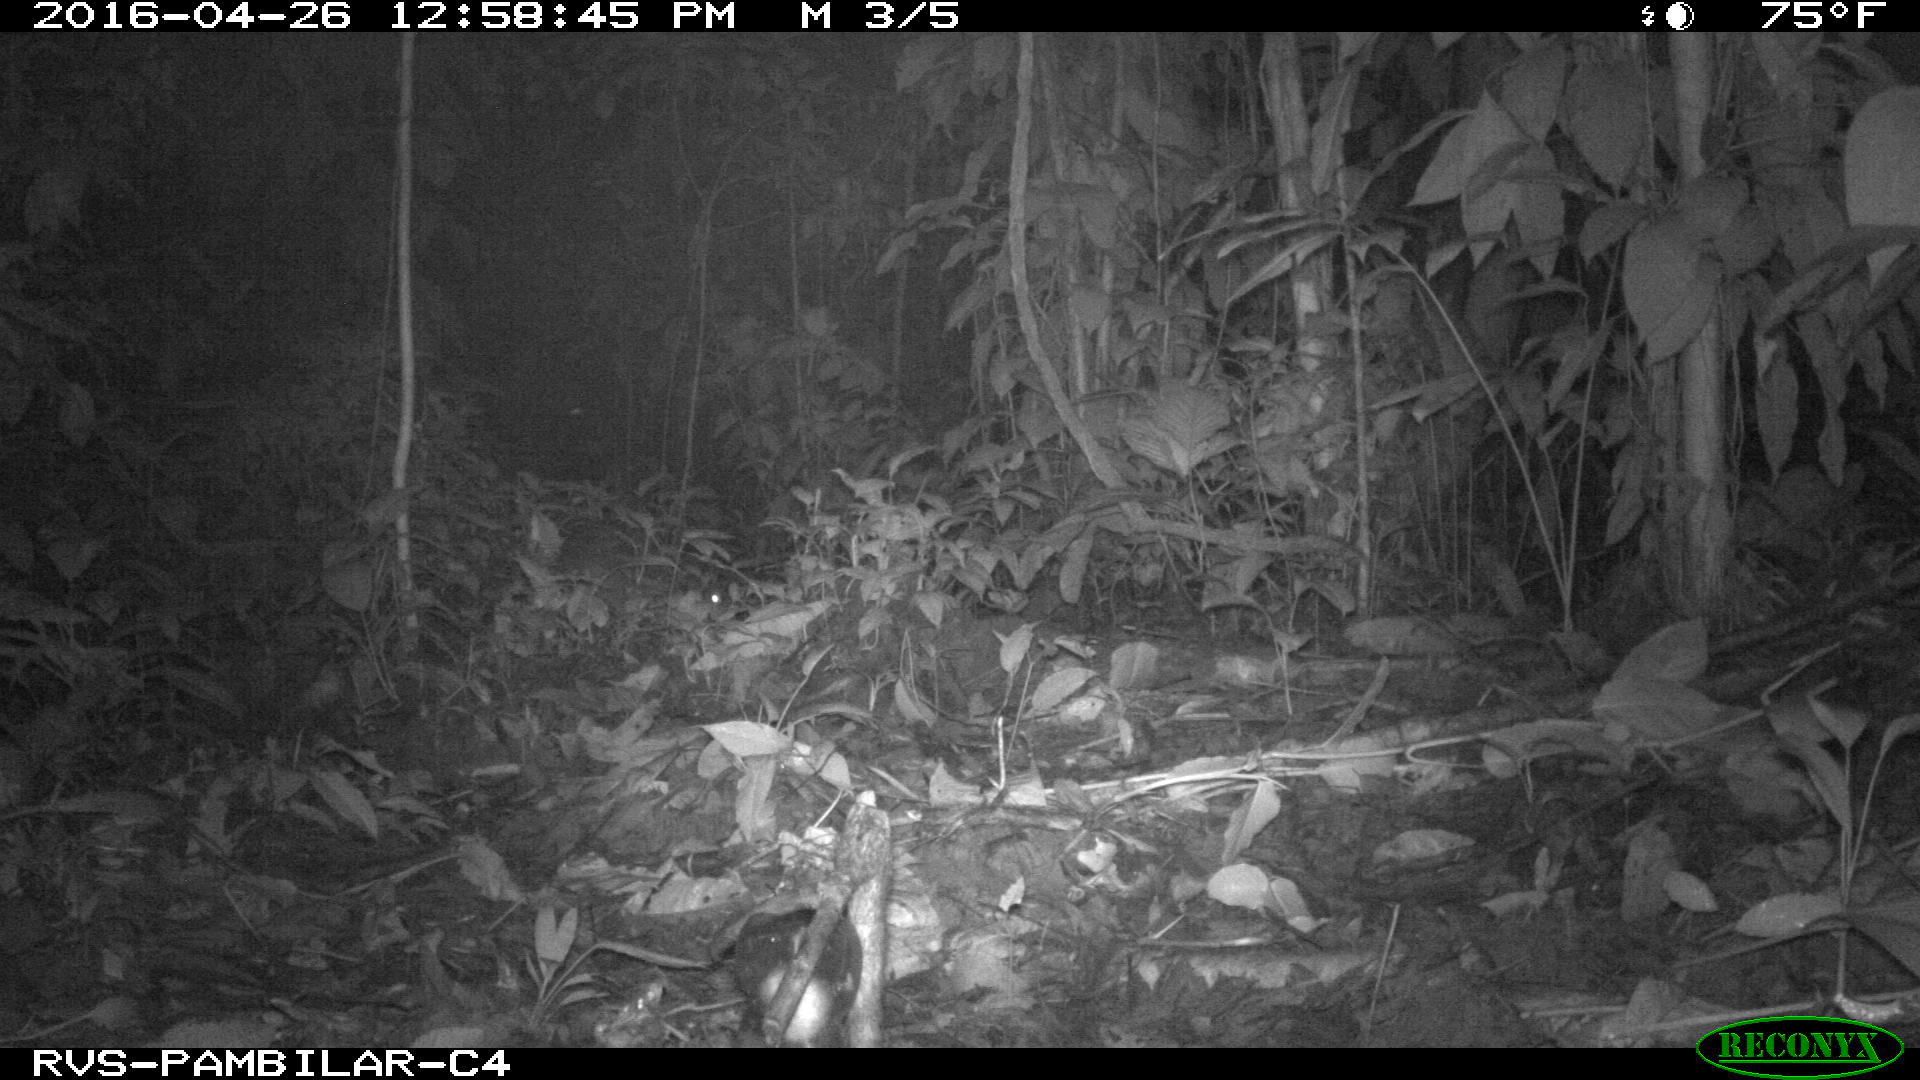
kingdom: Animalia
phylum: Chordata
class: Mammalia
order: Rodentia
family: Cuniculidae
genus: Cuniculus
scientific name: Cuniculus paca
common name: Lowland paca
